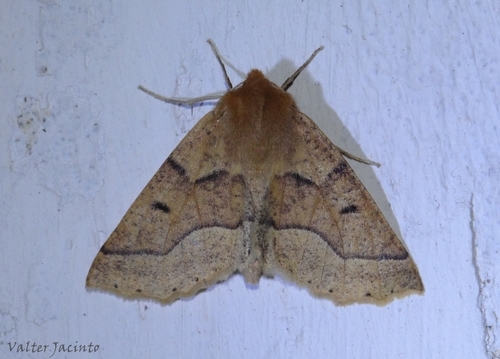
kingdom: Animalia
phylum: Arthropoda
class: Insecta
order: Lepidoptera
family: Geometridae
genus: Crocallis
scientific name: Crocallis tusciaria
